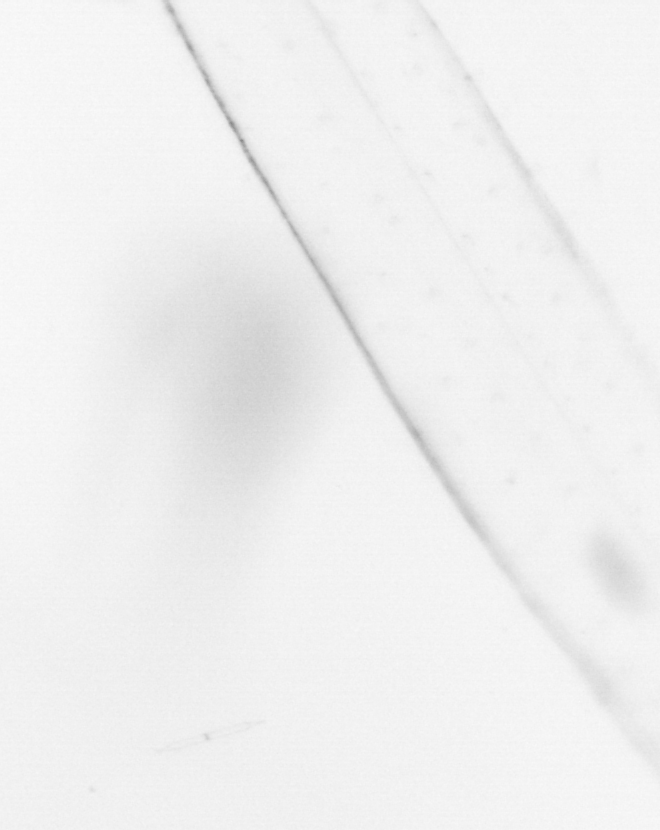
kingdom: Animalia
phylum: Chaetognatha
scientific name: Chaetognatha
